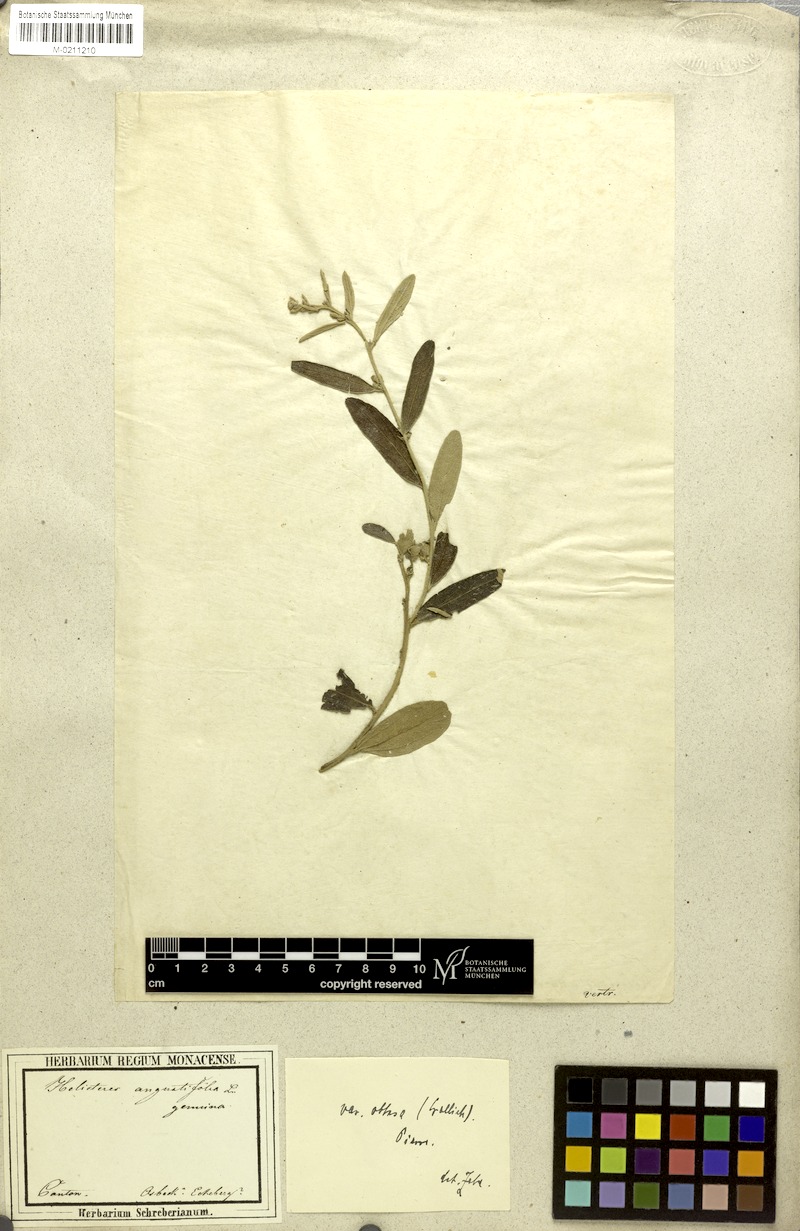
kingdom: Plantae
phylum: Tracheophyta
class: Magnoliopsida
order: Malvales
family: Malvaceae
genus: Helicteres
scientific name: Helicteres angustifolia
